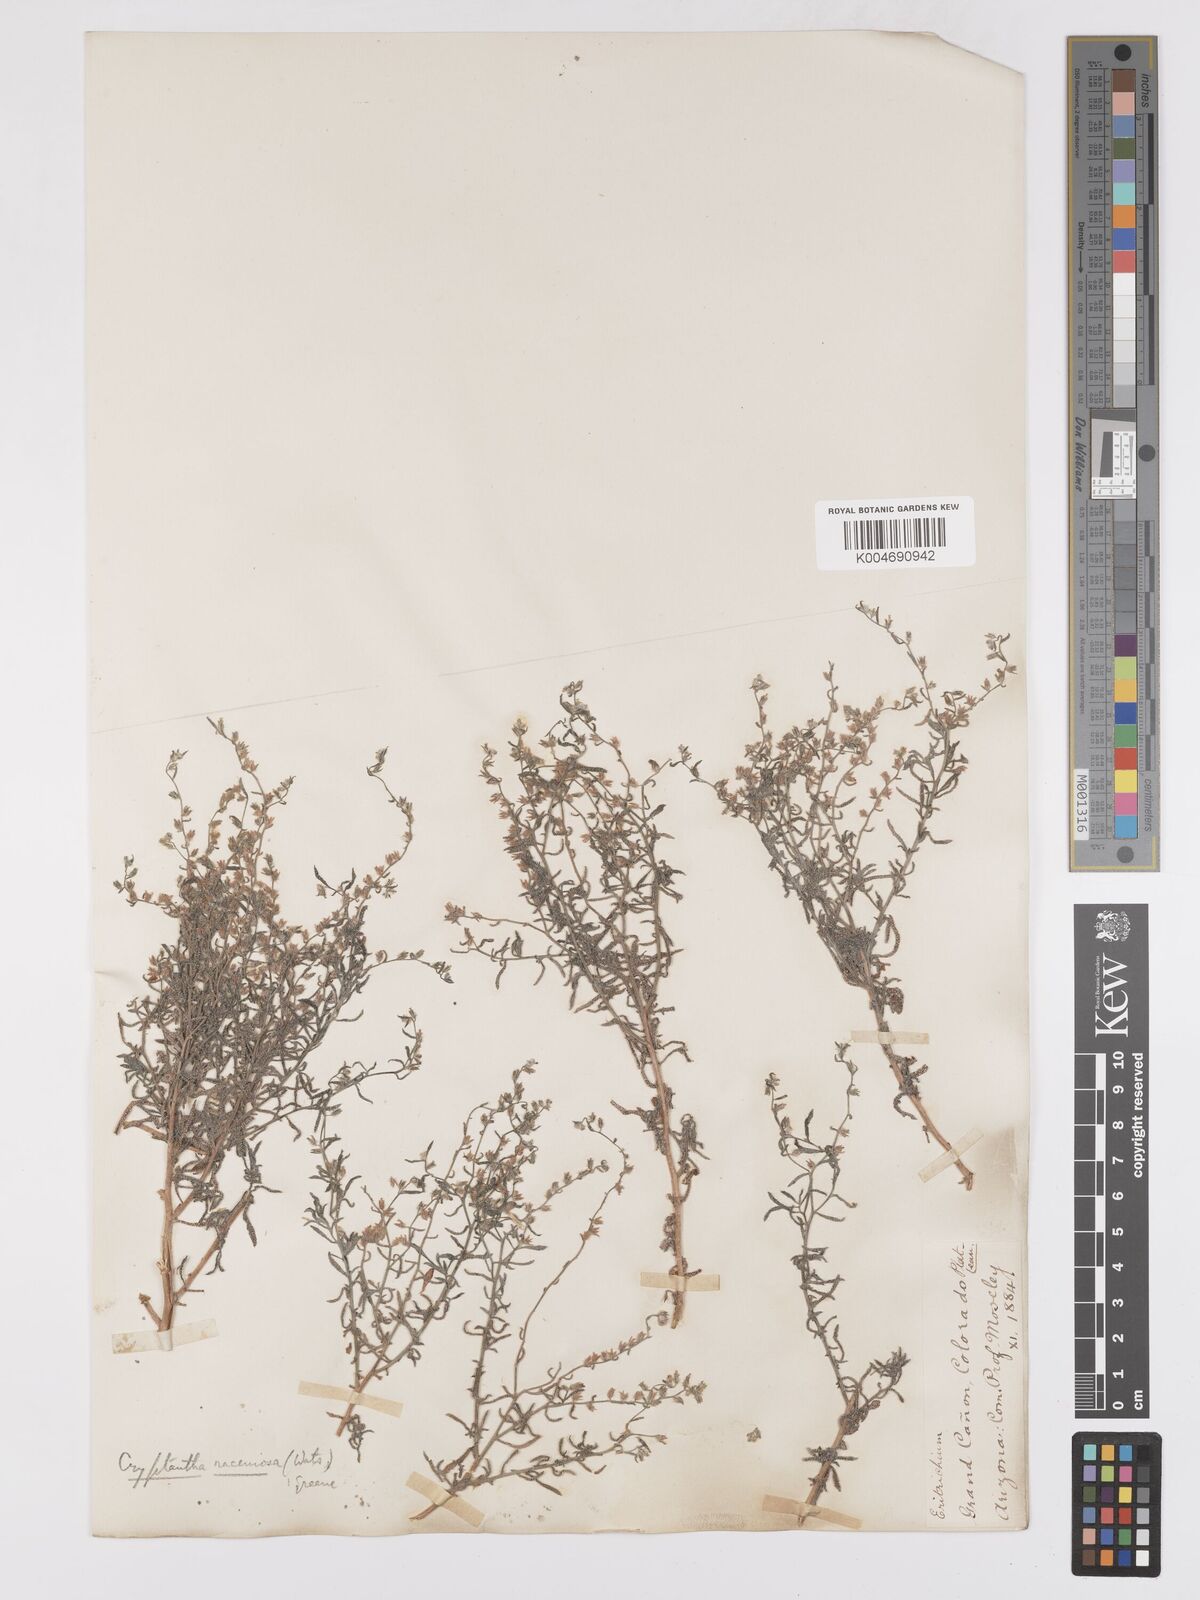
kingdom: Plantae
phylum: Tracheophyta
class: Magnoliopsida
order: Boraginales
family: Boraginaceae
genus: Johnstonella
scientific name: Johnstonella racemosa
